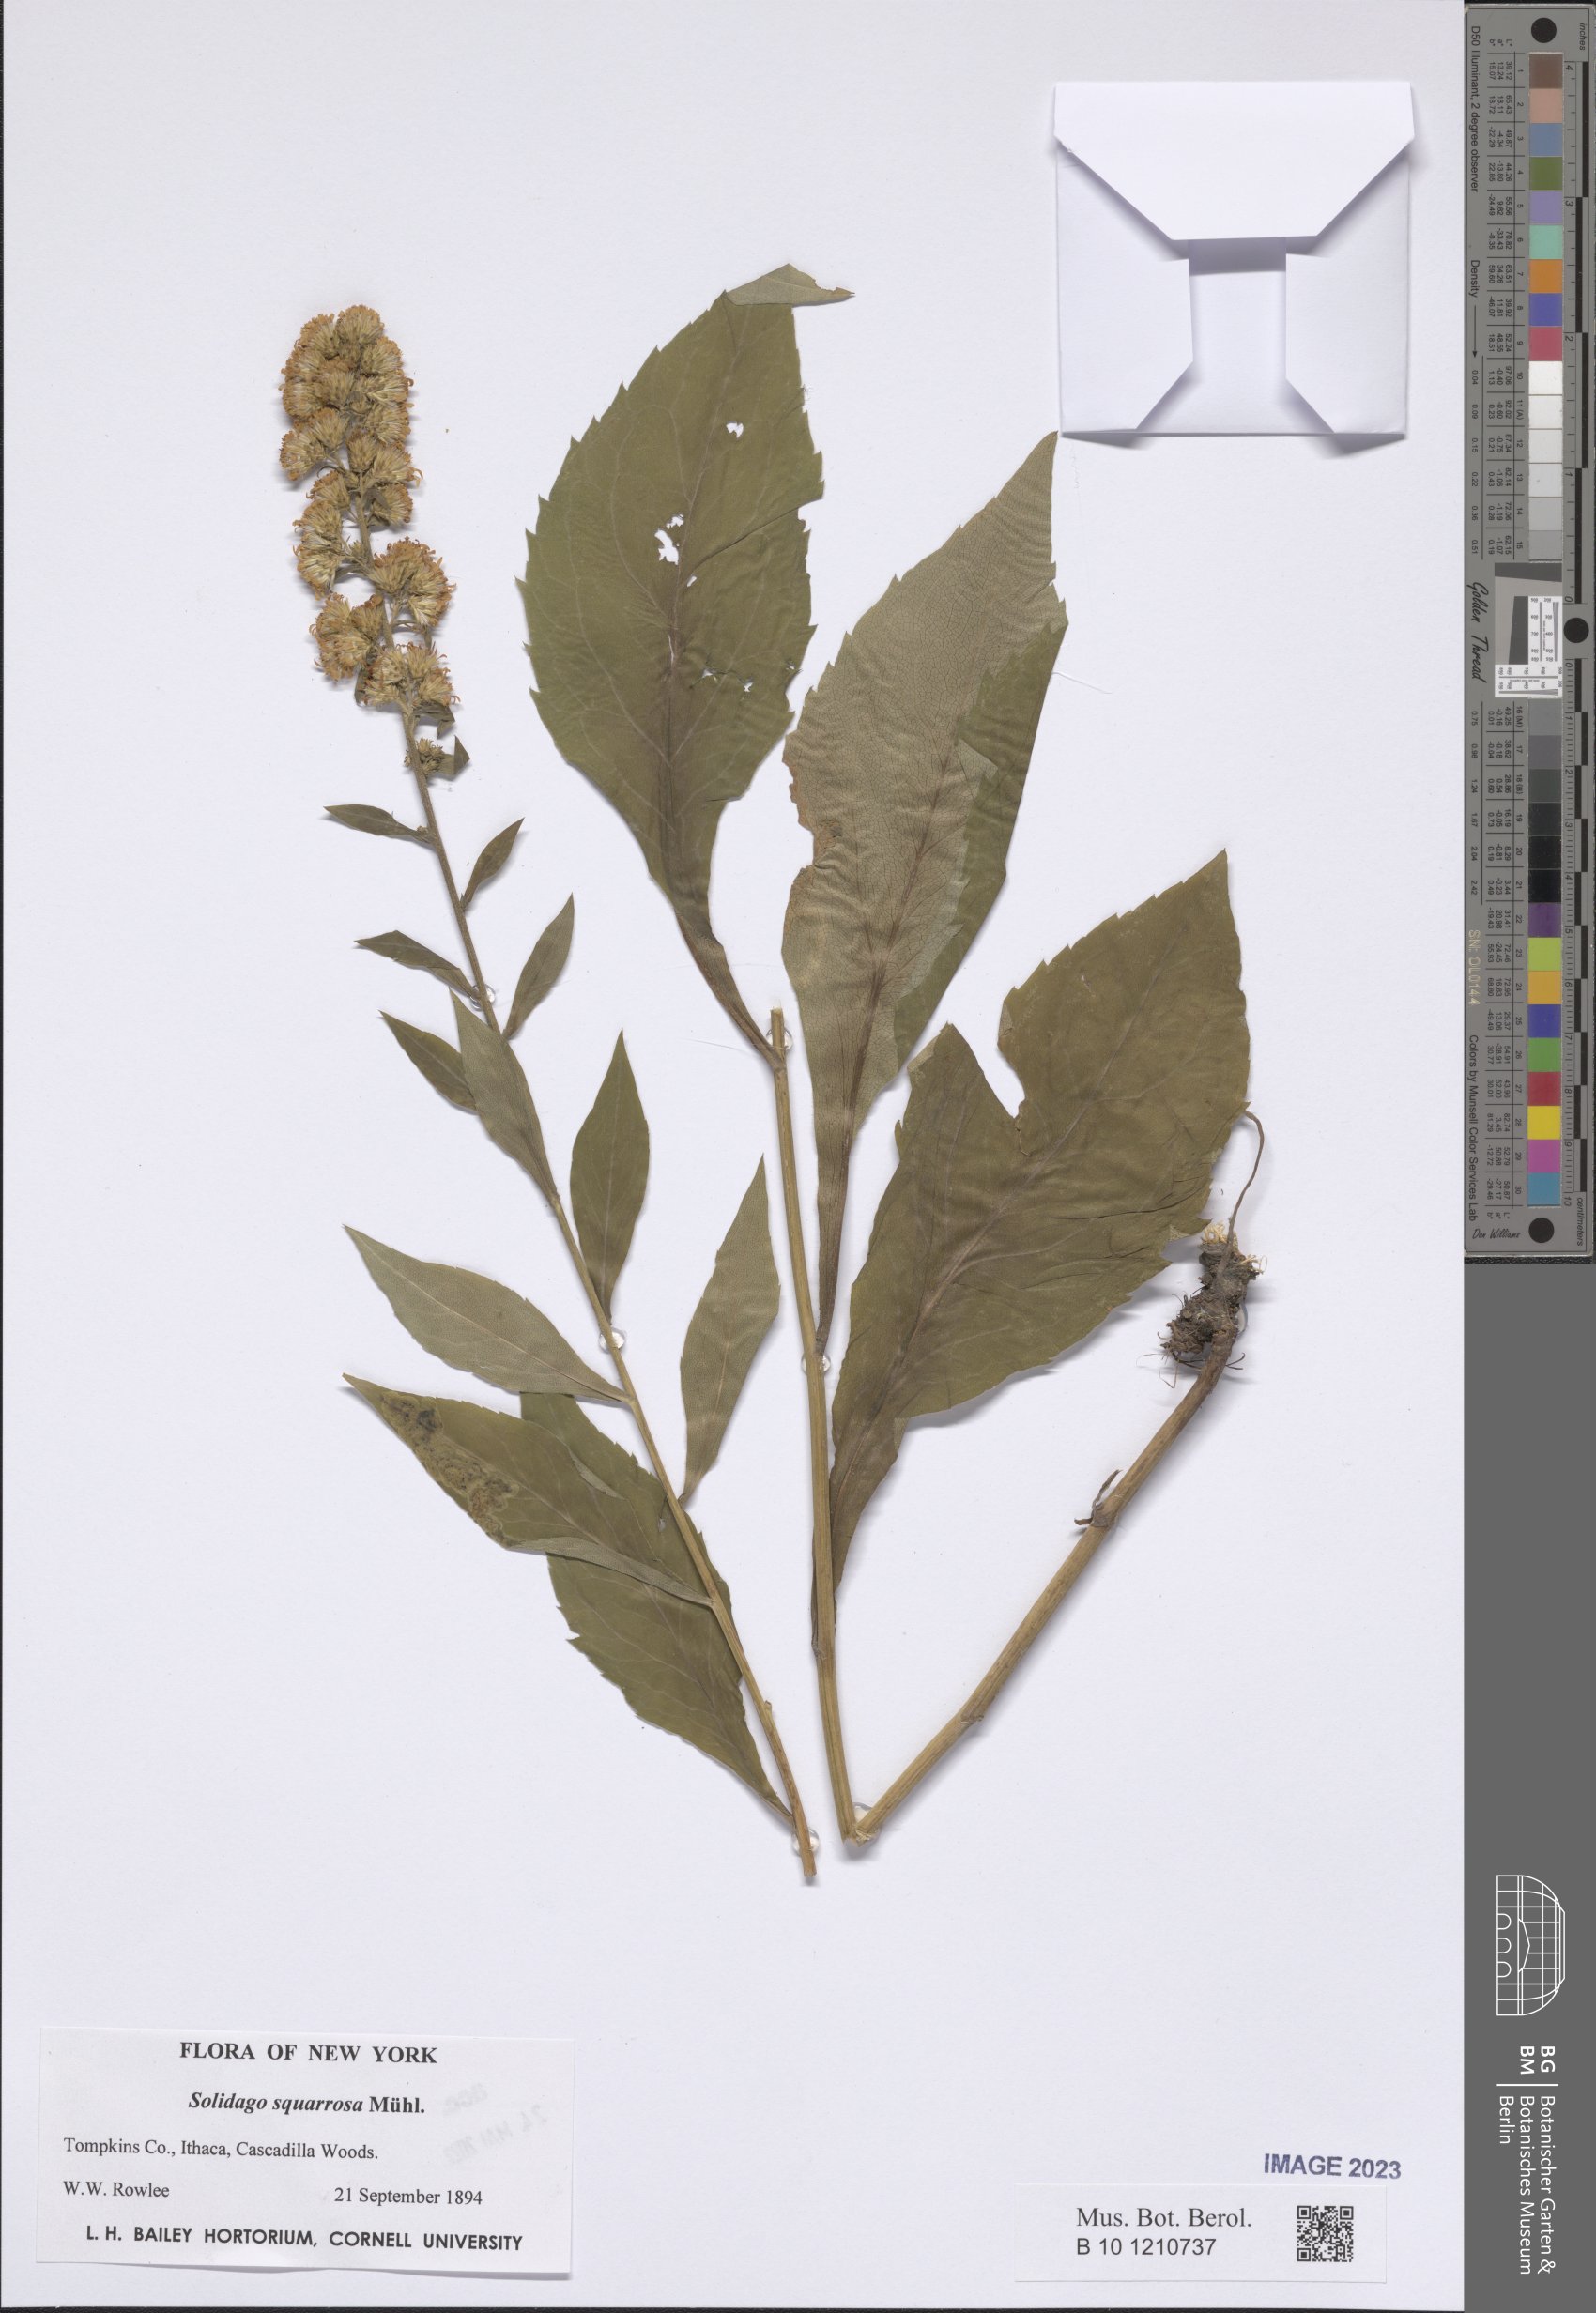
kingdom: Plantae
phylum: Tracheophyta
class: Magnoliopsida
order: Asterales
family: Asteraceae
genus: Solidago
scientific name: Solidago petiolaris
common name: Downy ragged goldenrod
